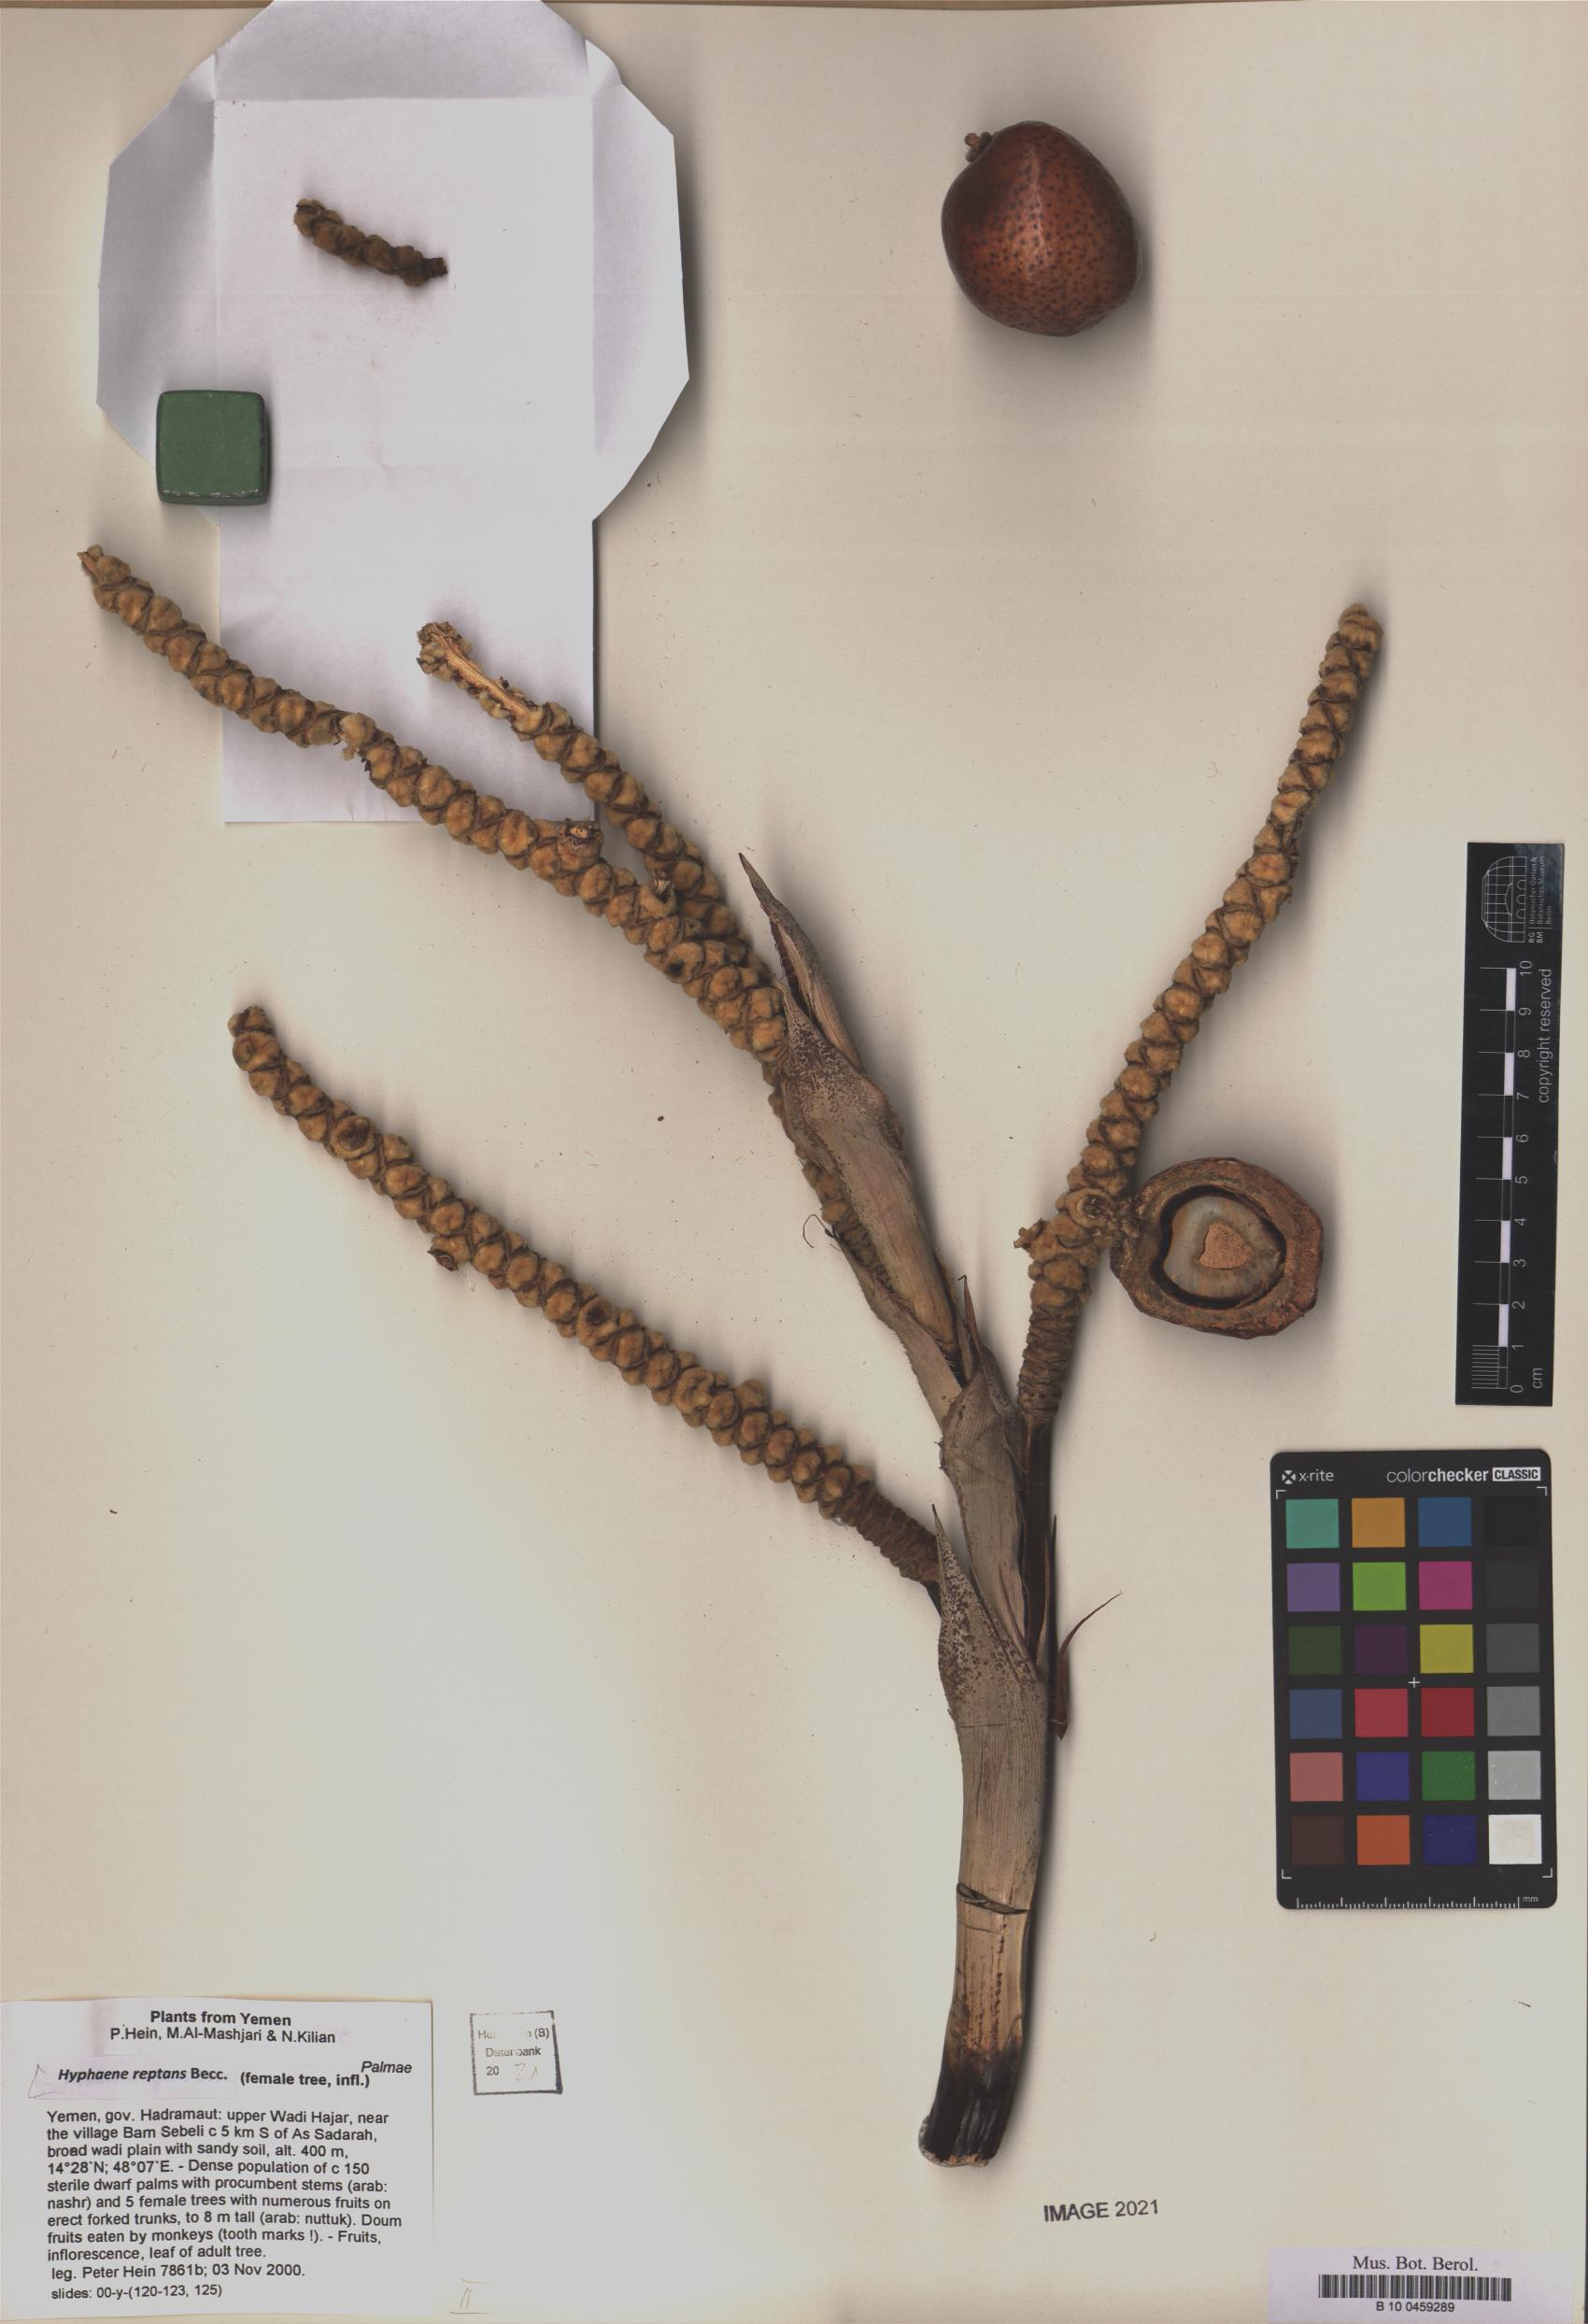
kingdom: Plantae
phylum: Tracheophyta
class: Liliopsida
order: Arecales
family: Arecaceae
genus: Hyphaene
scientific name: Hyphaene reptans
